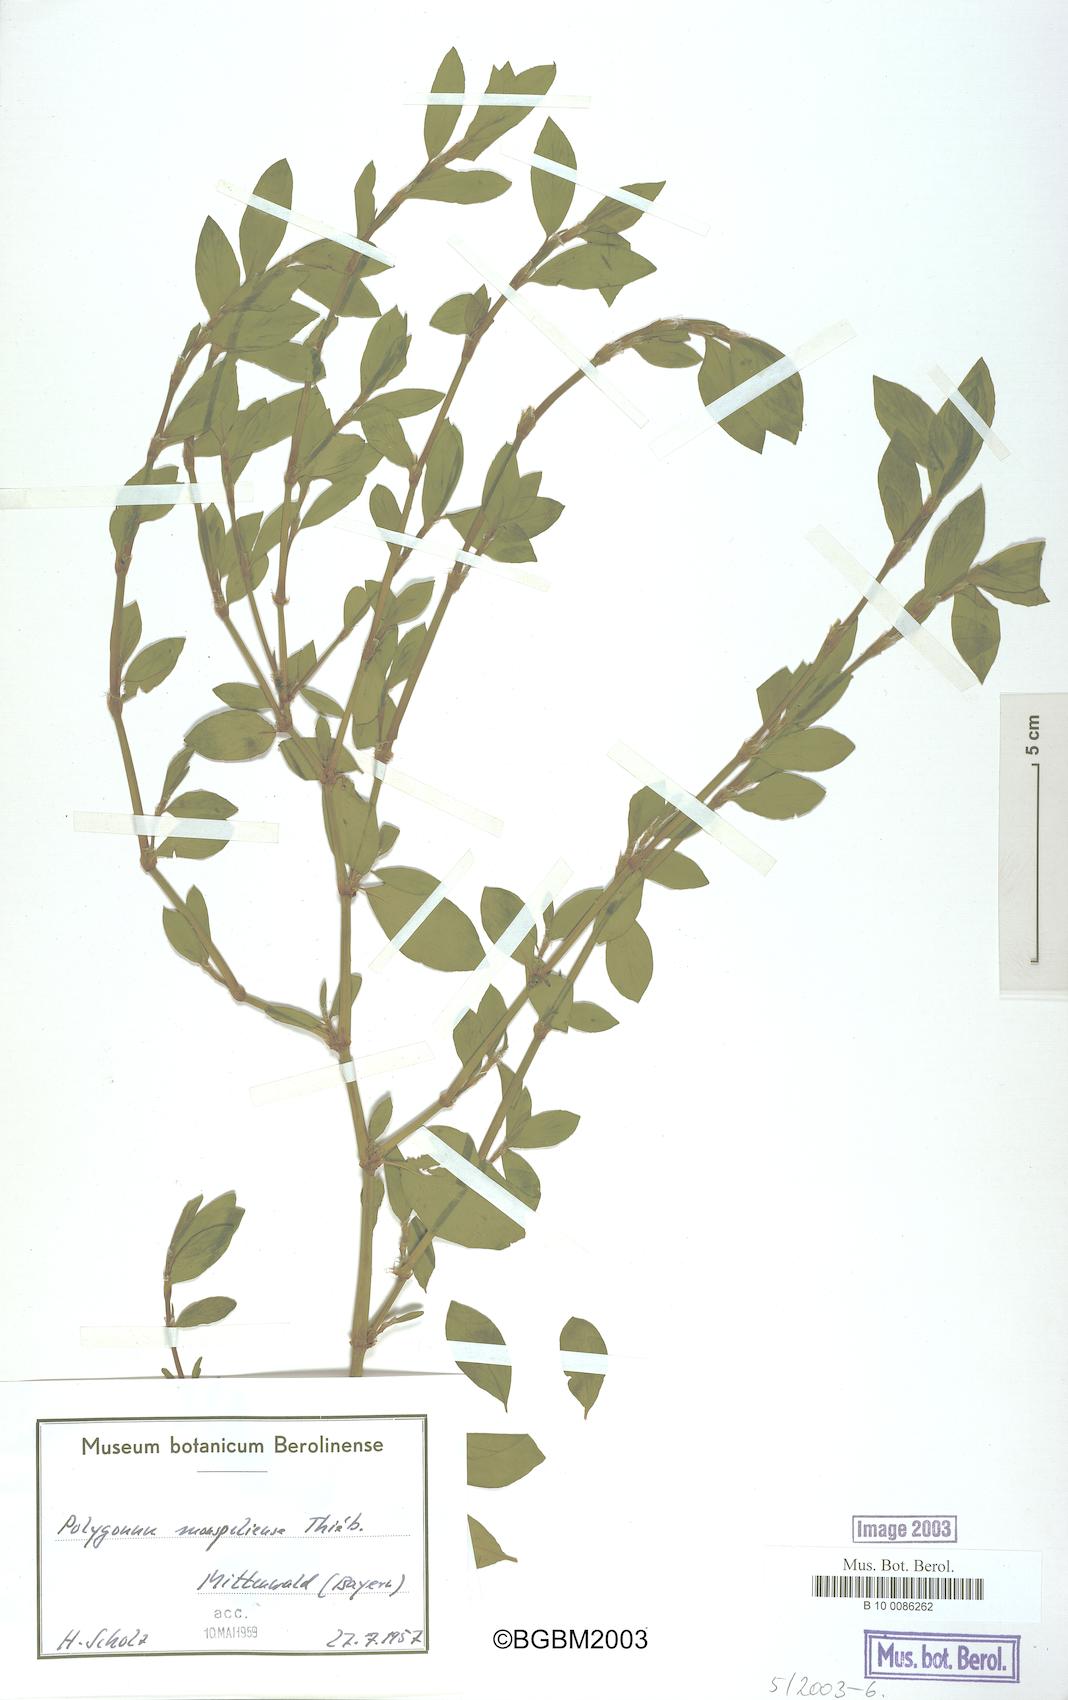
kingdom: Plantae
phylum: Tracheophyta
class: Magnoliopsida
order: Caryophyllales
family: Polygonaceae
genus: Polygonum
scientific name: Polygonum
